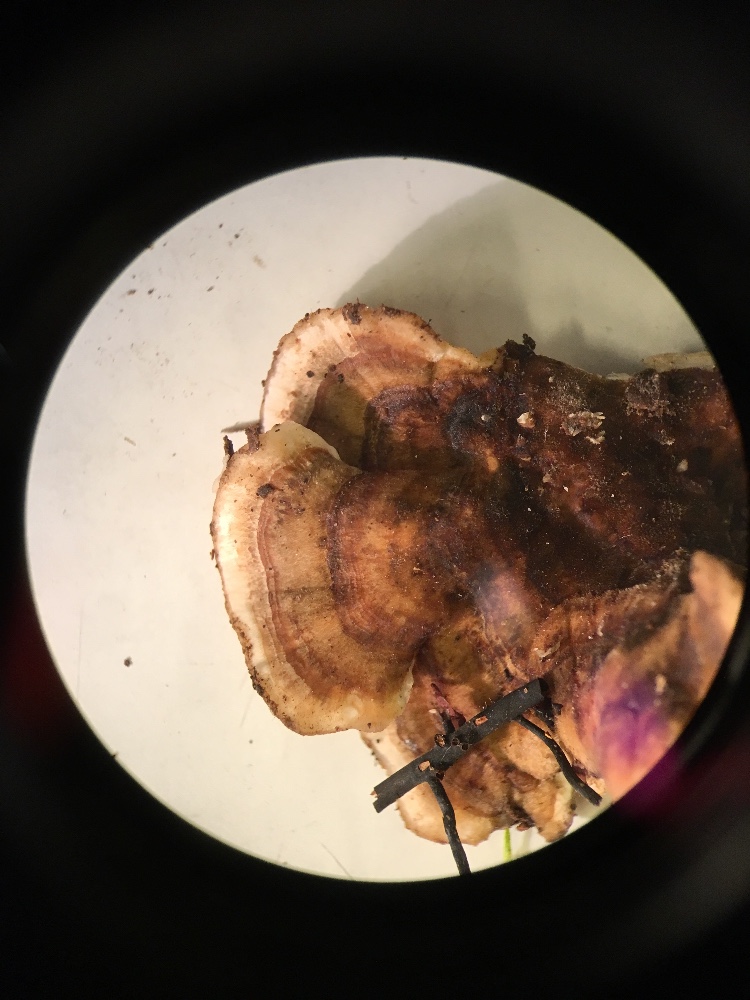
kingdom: Fungi
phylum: Basidiomycota
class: Agaricomycetes
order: Polyporales
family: Polyporaceae
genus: Trametes
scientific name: Trametes versicolor
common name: broget læderporesvamp
